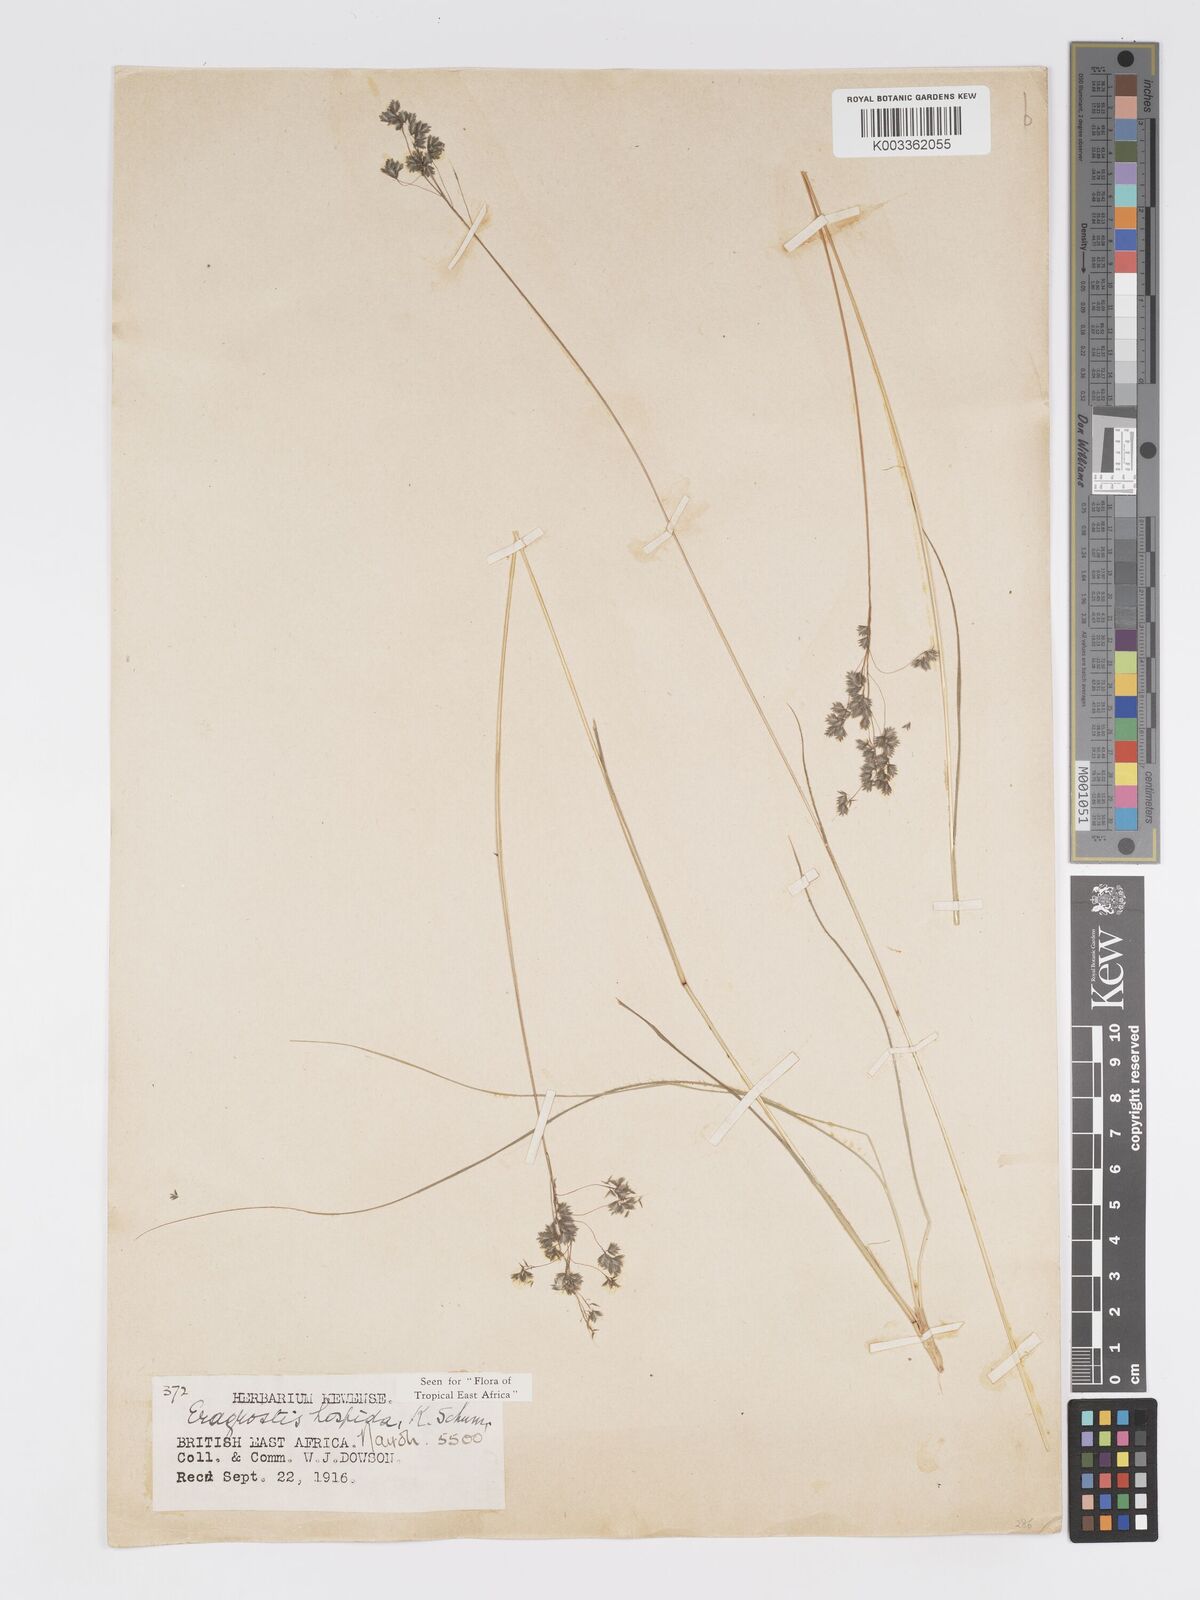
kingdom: Plantae
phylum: Tracheophyta
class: Liliopsida
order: Poales
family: Poaceae
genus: Eragrostis
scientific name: Eragrostis hispida
